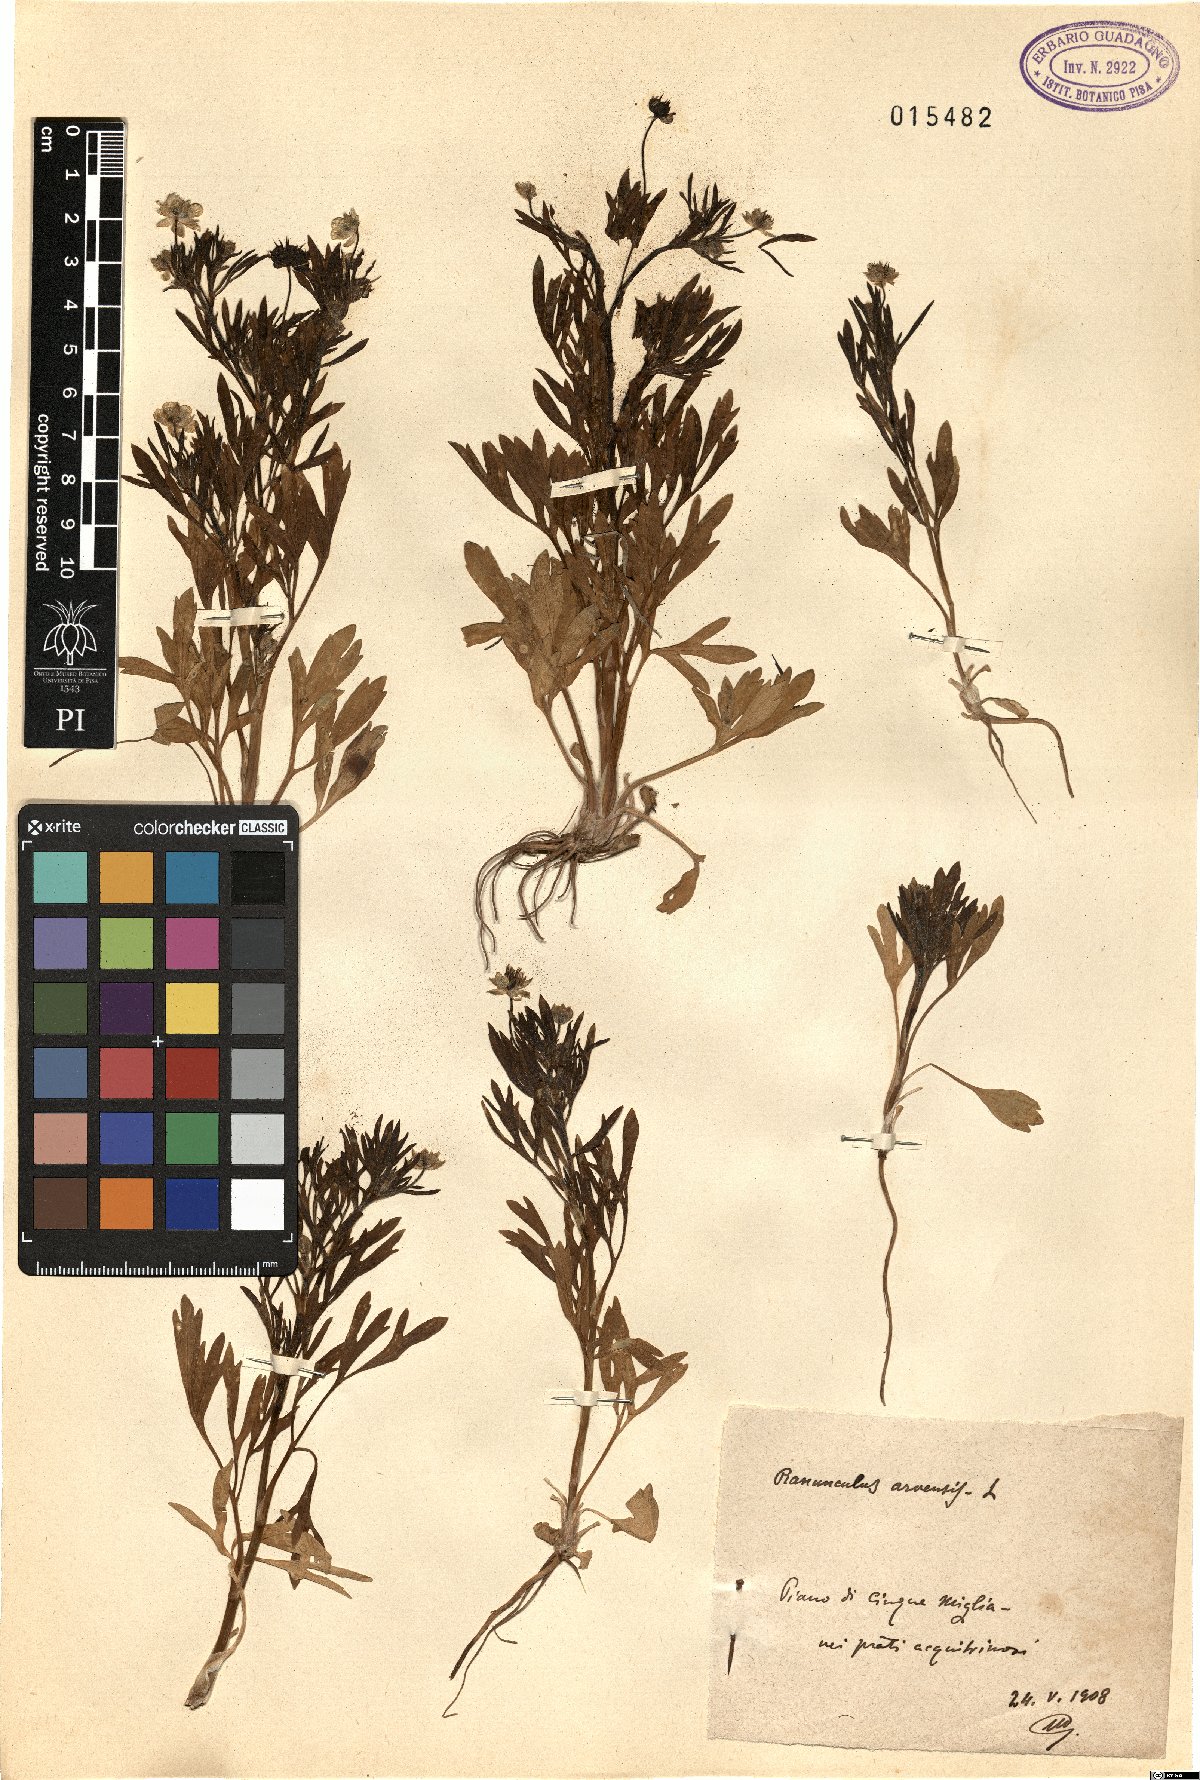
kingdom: Plantae
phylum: Tracheophyta
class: Magnoliopsida
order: Ranunculales
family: Ranunculaceae
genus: Ranunculus
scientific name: Ranunculus arvensis
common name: Corn buttercup
